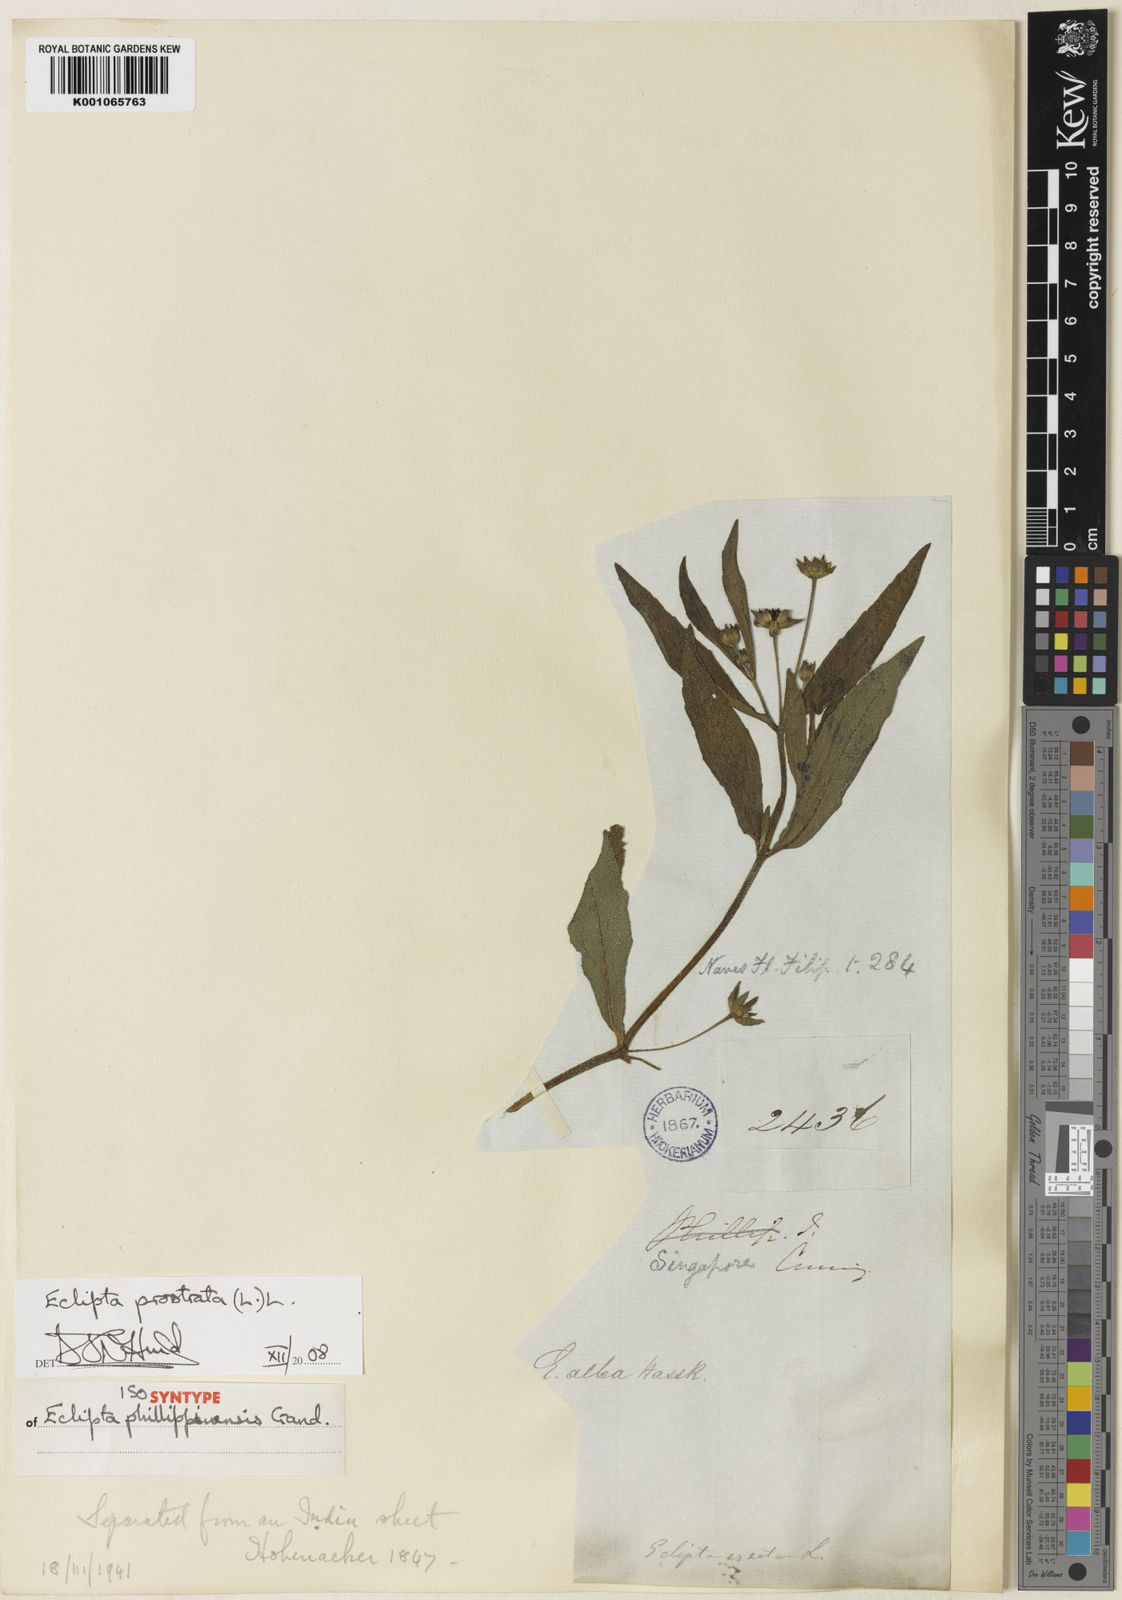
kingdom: Plantae
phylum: Tracheophyta
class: Magnoliopsida
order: Asterales
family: Asteraceae
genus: Eclipta
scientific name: Eclipta alba
